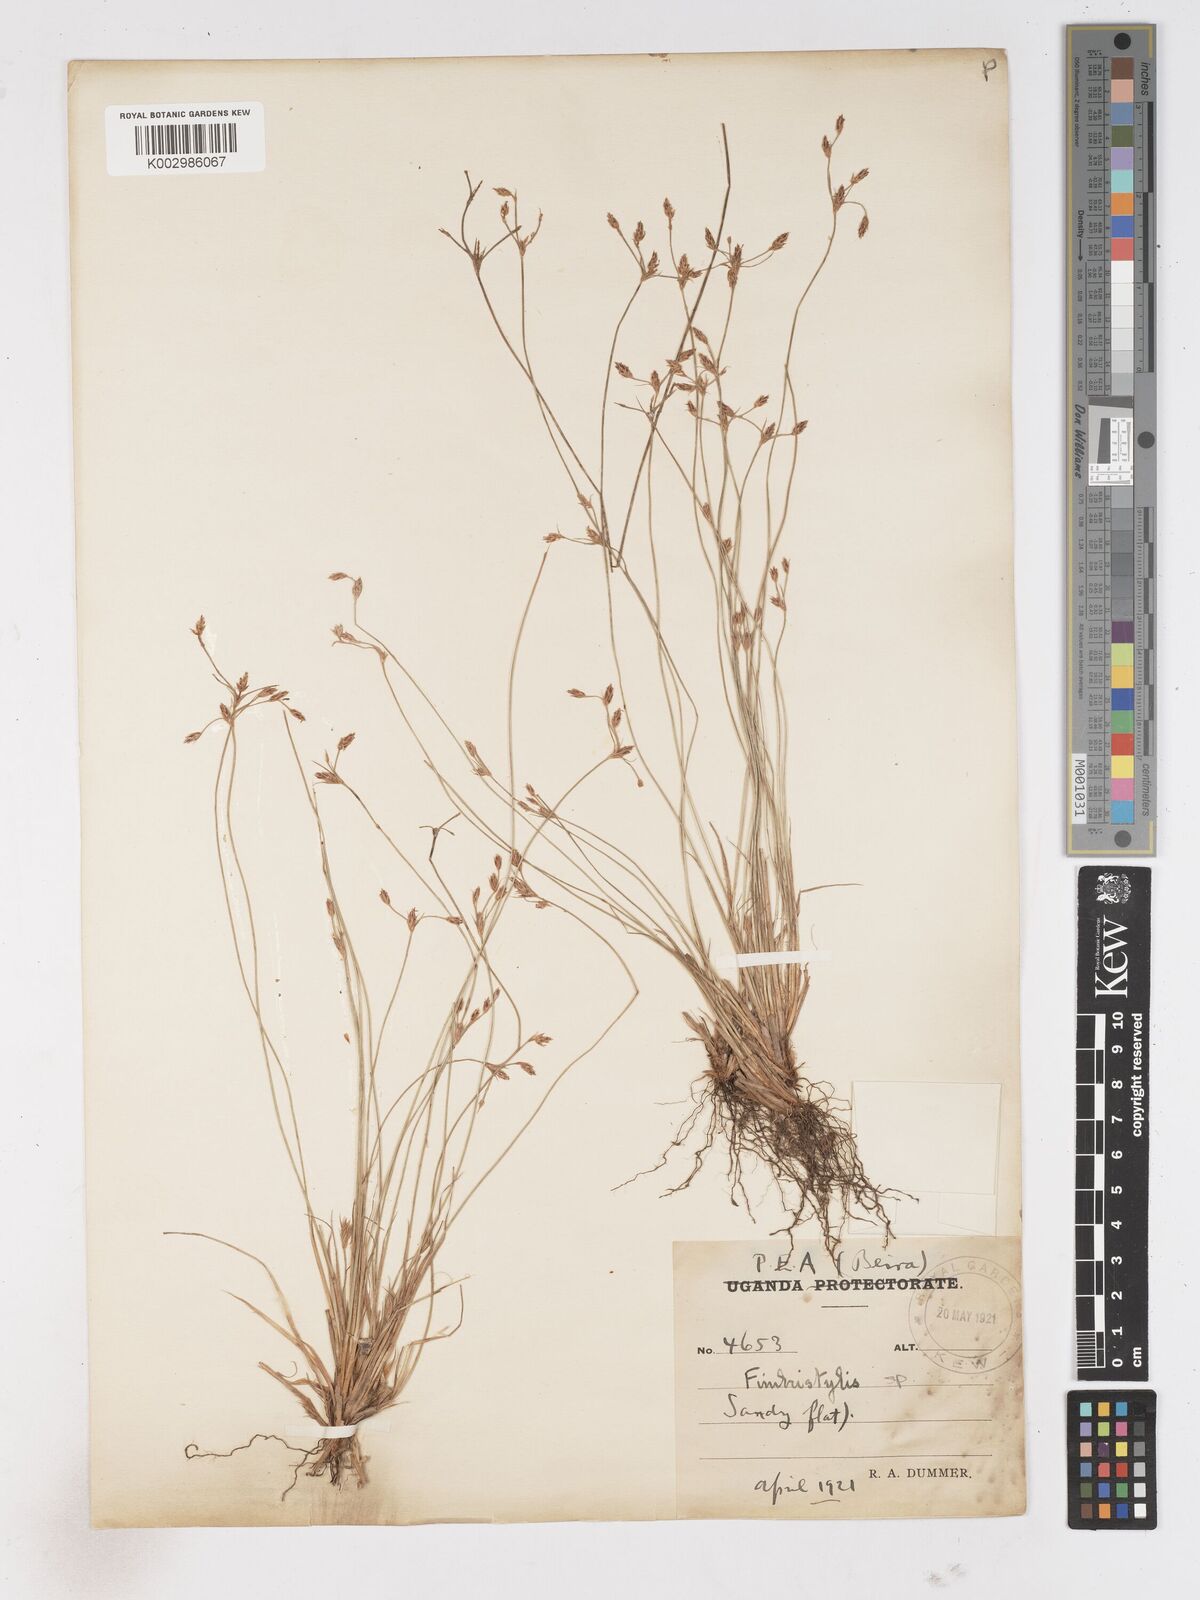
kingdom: Plantae
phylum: Tracheophyta
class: Liliopsida
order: Poales
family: Cyperaceae
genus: Fimbristylis
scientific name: Fimbristylis
